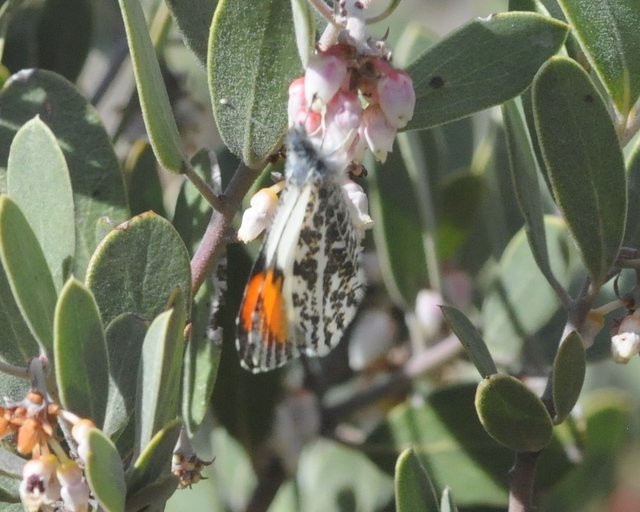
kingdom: Animalia
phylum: Arthropoda
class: Insecta
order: Lepidoptera
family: Pieridae
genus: Anthocharis
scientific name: Anthocharis sara
